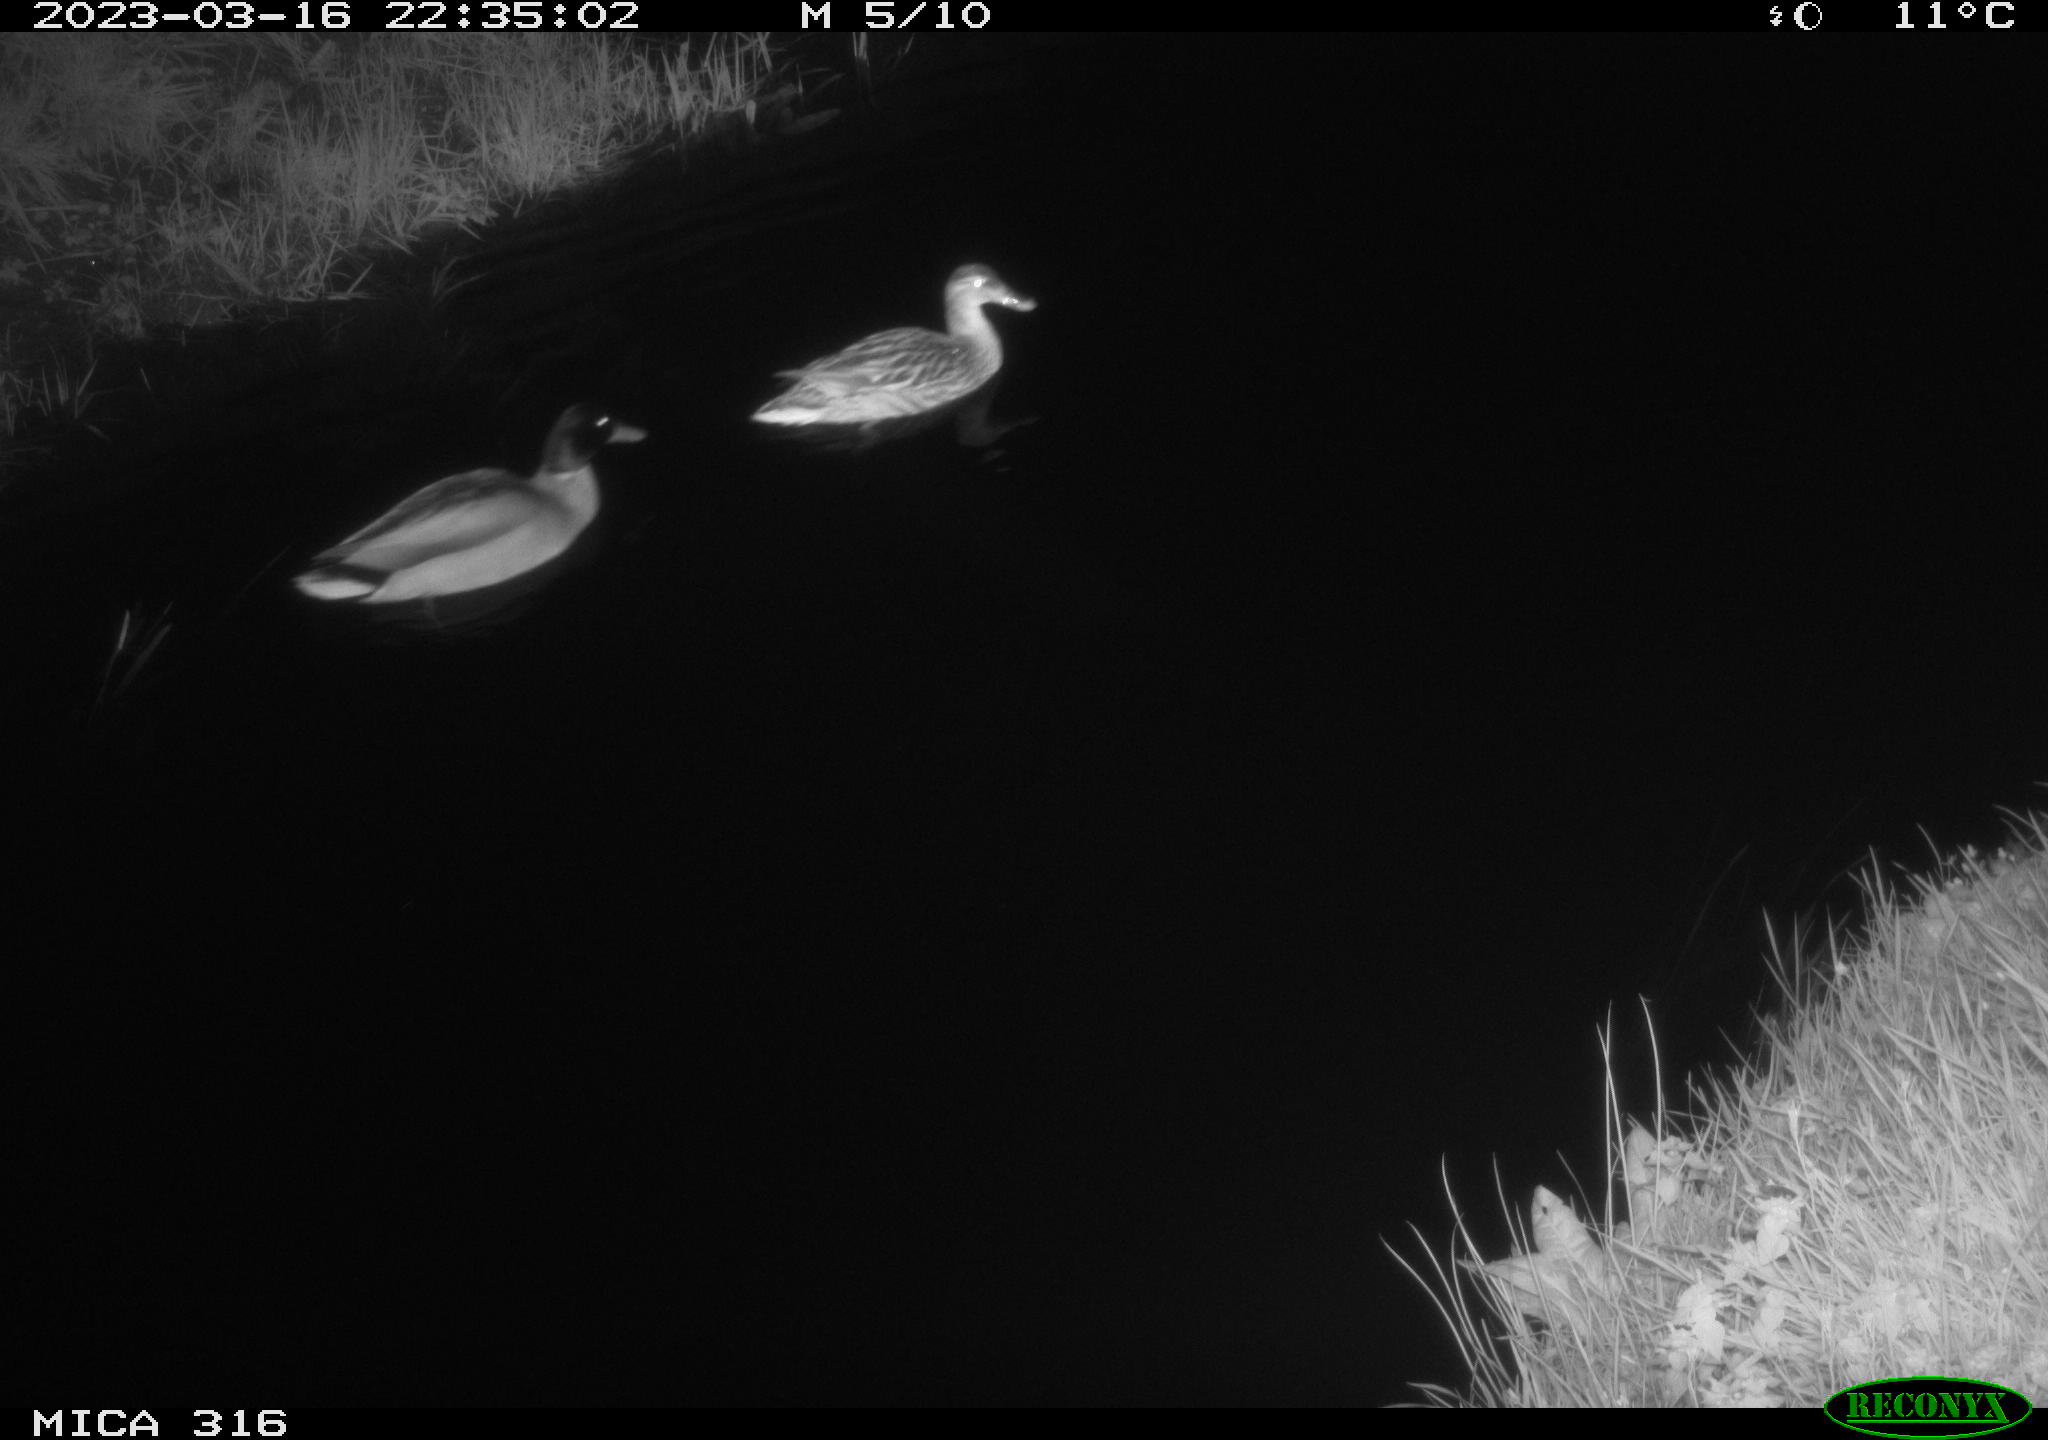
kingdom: Animalia
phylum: Chordata
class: Aves
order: Anseriformes
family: Anatidae
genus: Anas
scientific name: Anas
